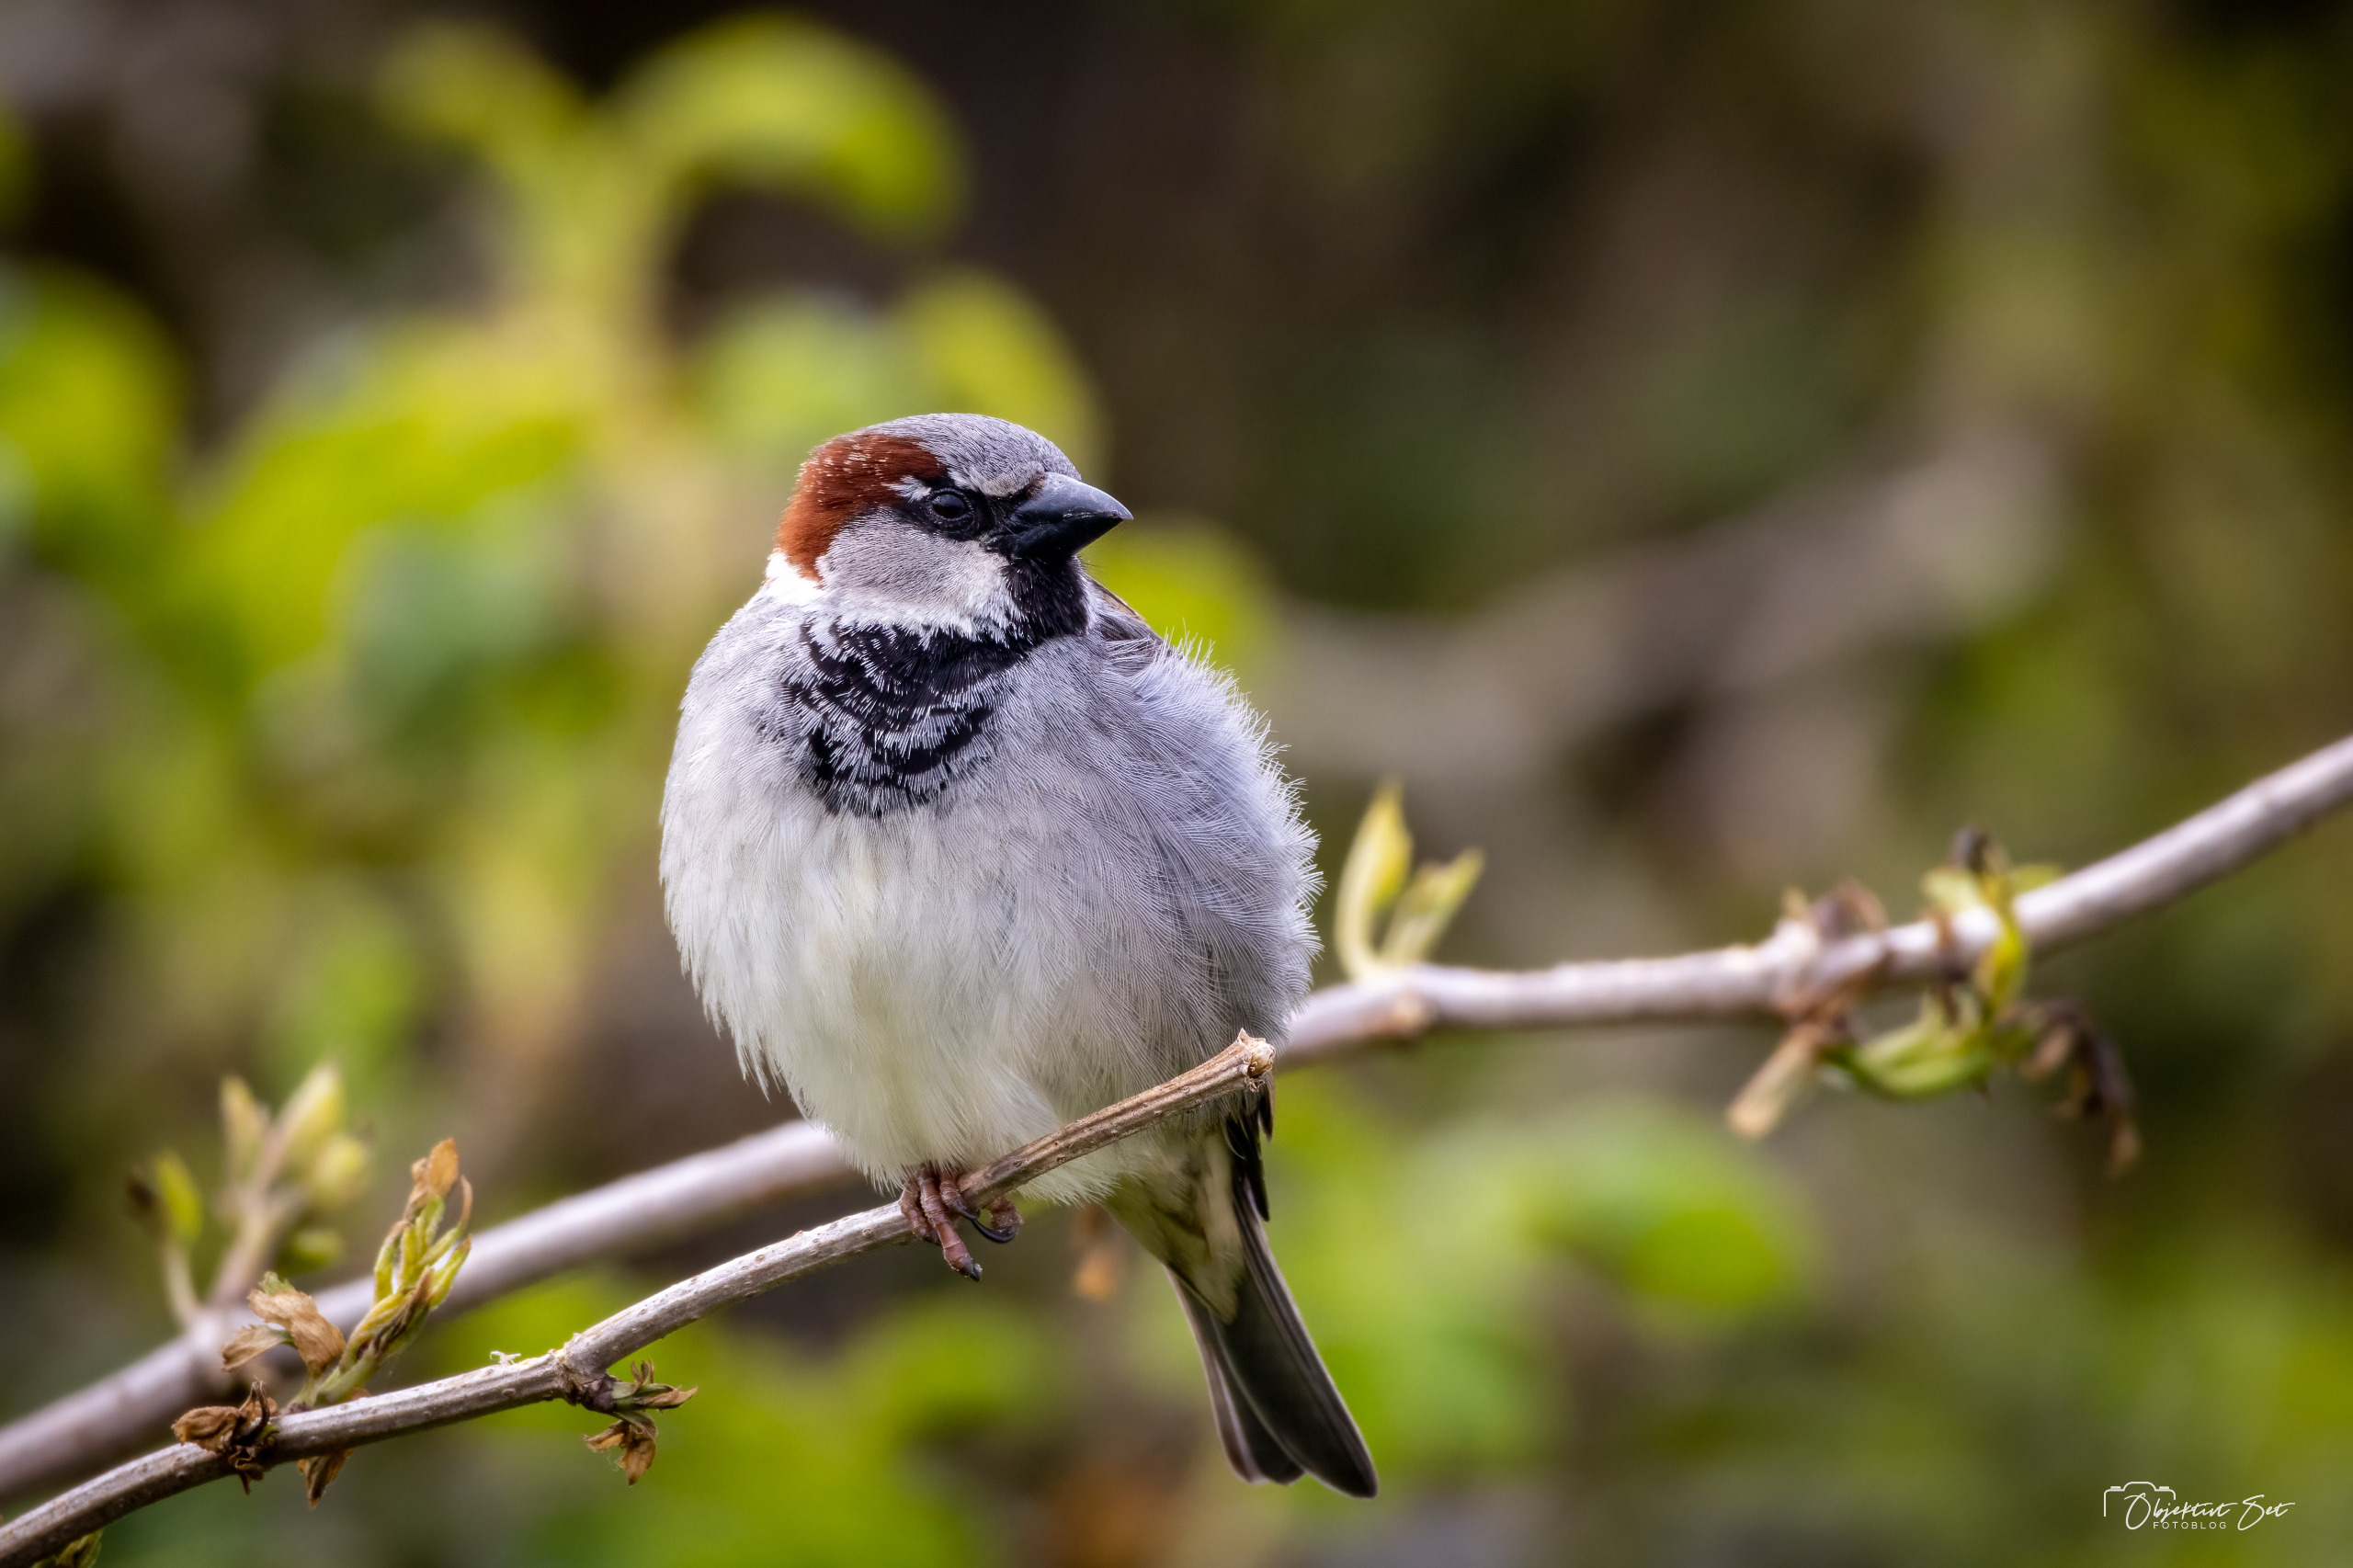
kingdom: Animalia
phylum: Chordata
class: Aves
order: Passeriformes
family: Passeridae
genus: Passer
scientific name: Passer domesticus
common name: Gråspurv
